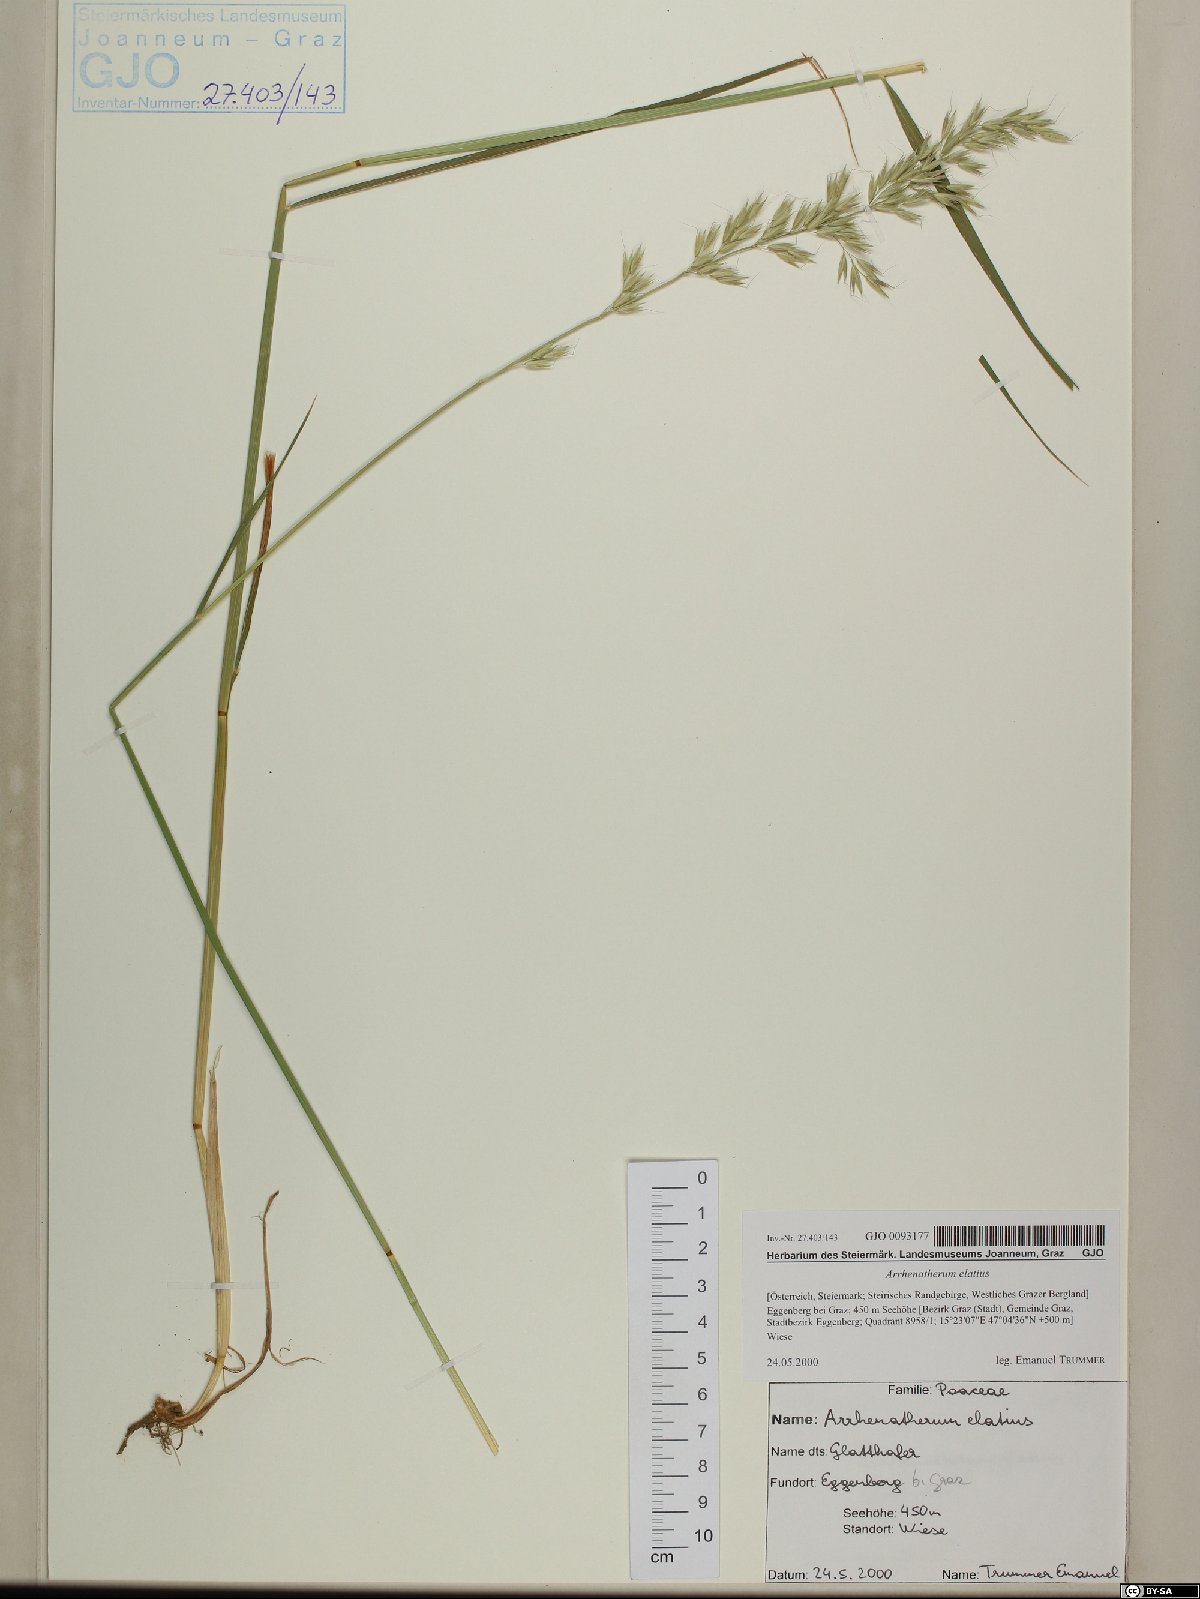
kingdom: Plantae
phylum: Tracheophyta
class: Liliopsida
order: Poales
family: Poaceae
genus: Arrhenatherum
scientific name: Arrhenatherum elatius
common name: Tall oatgrass
